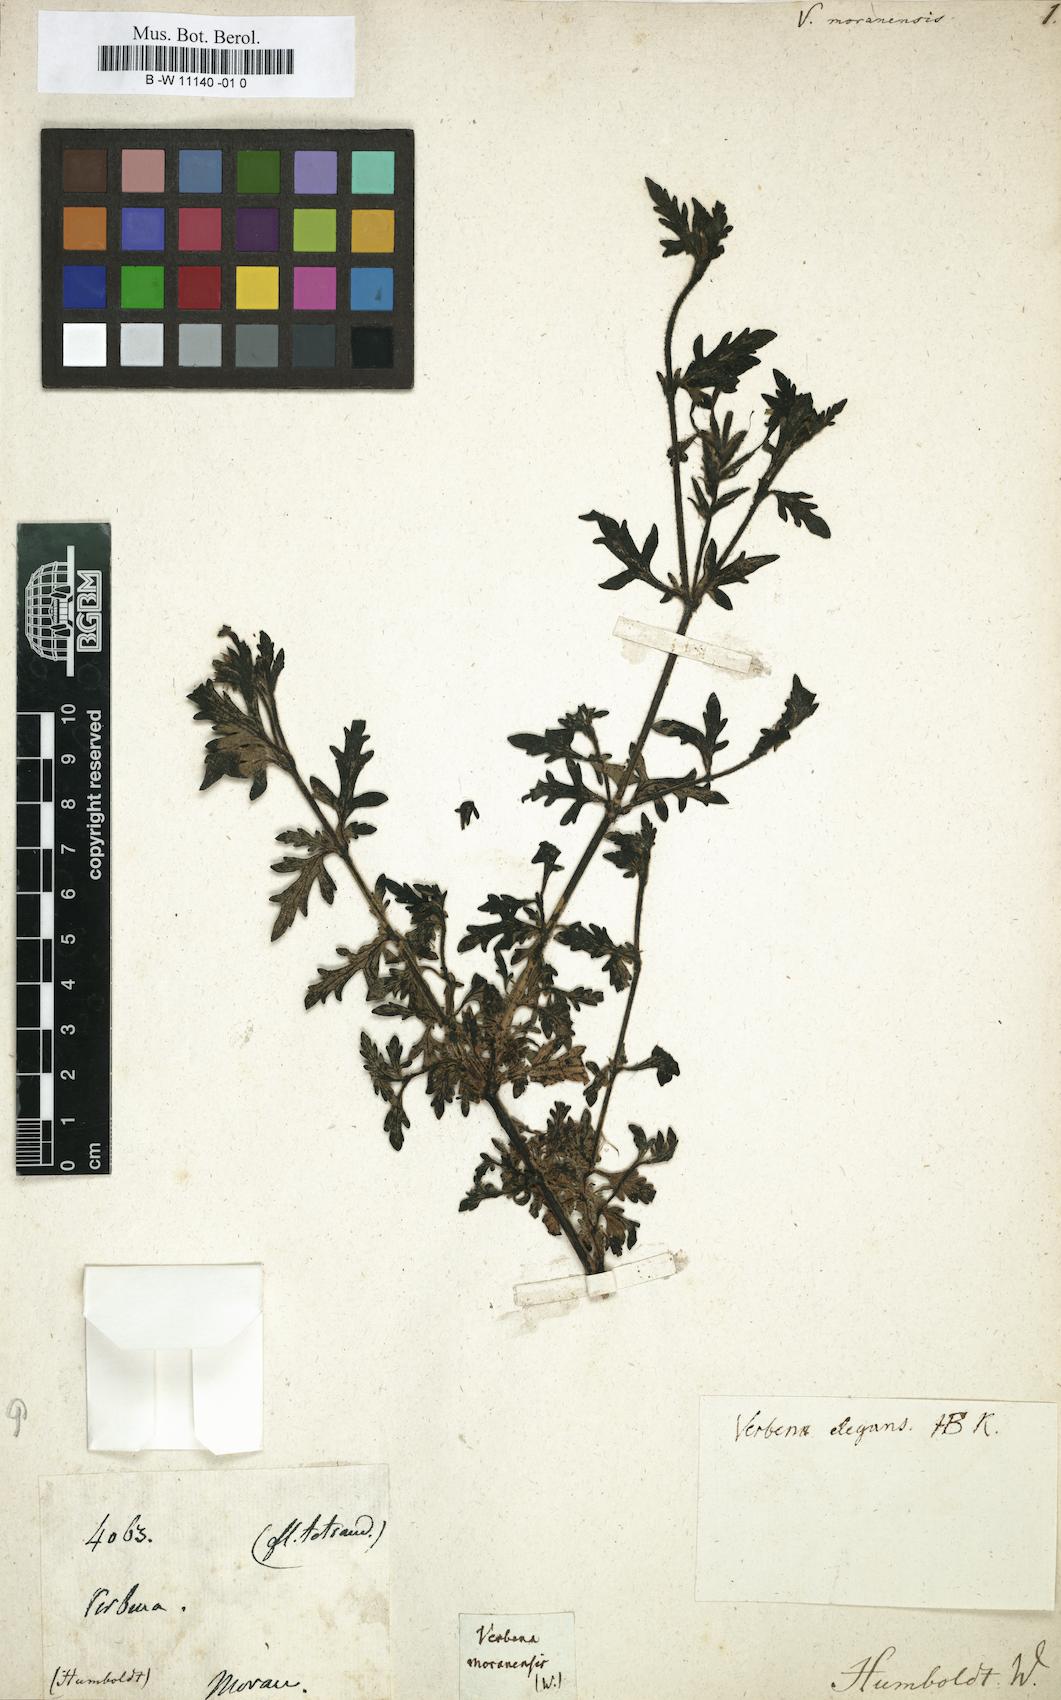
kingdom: Plantae
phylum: Tracheophyta
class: Magnoliopsida
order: Lamiales
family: Verbenaceae
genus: Verbena
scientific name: Verbena laciniata
